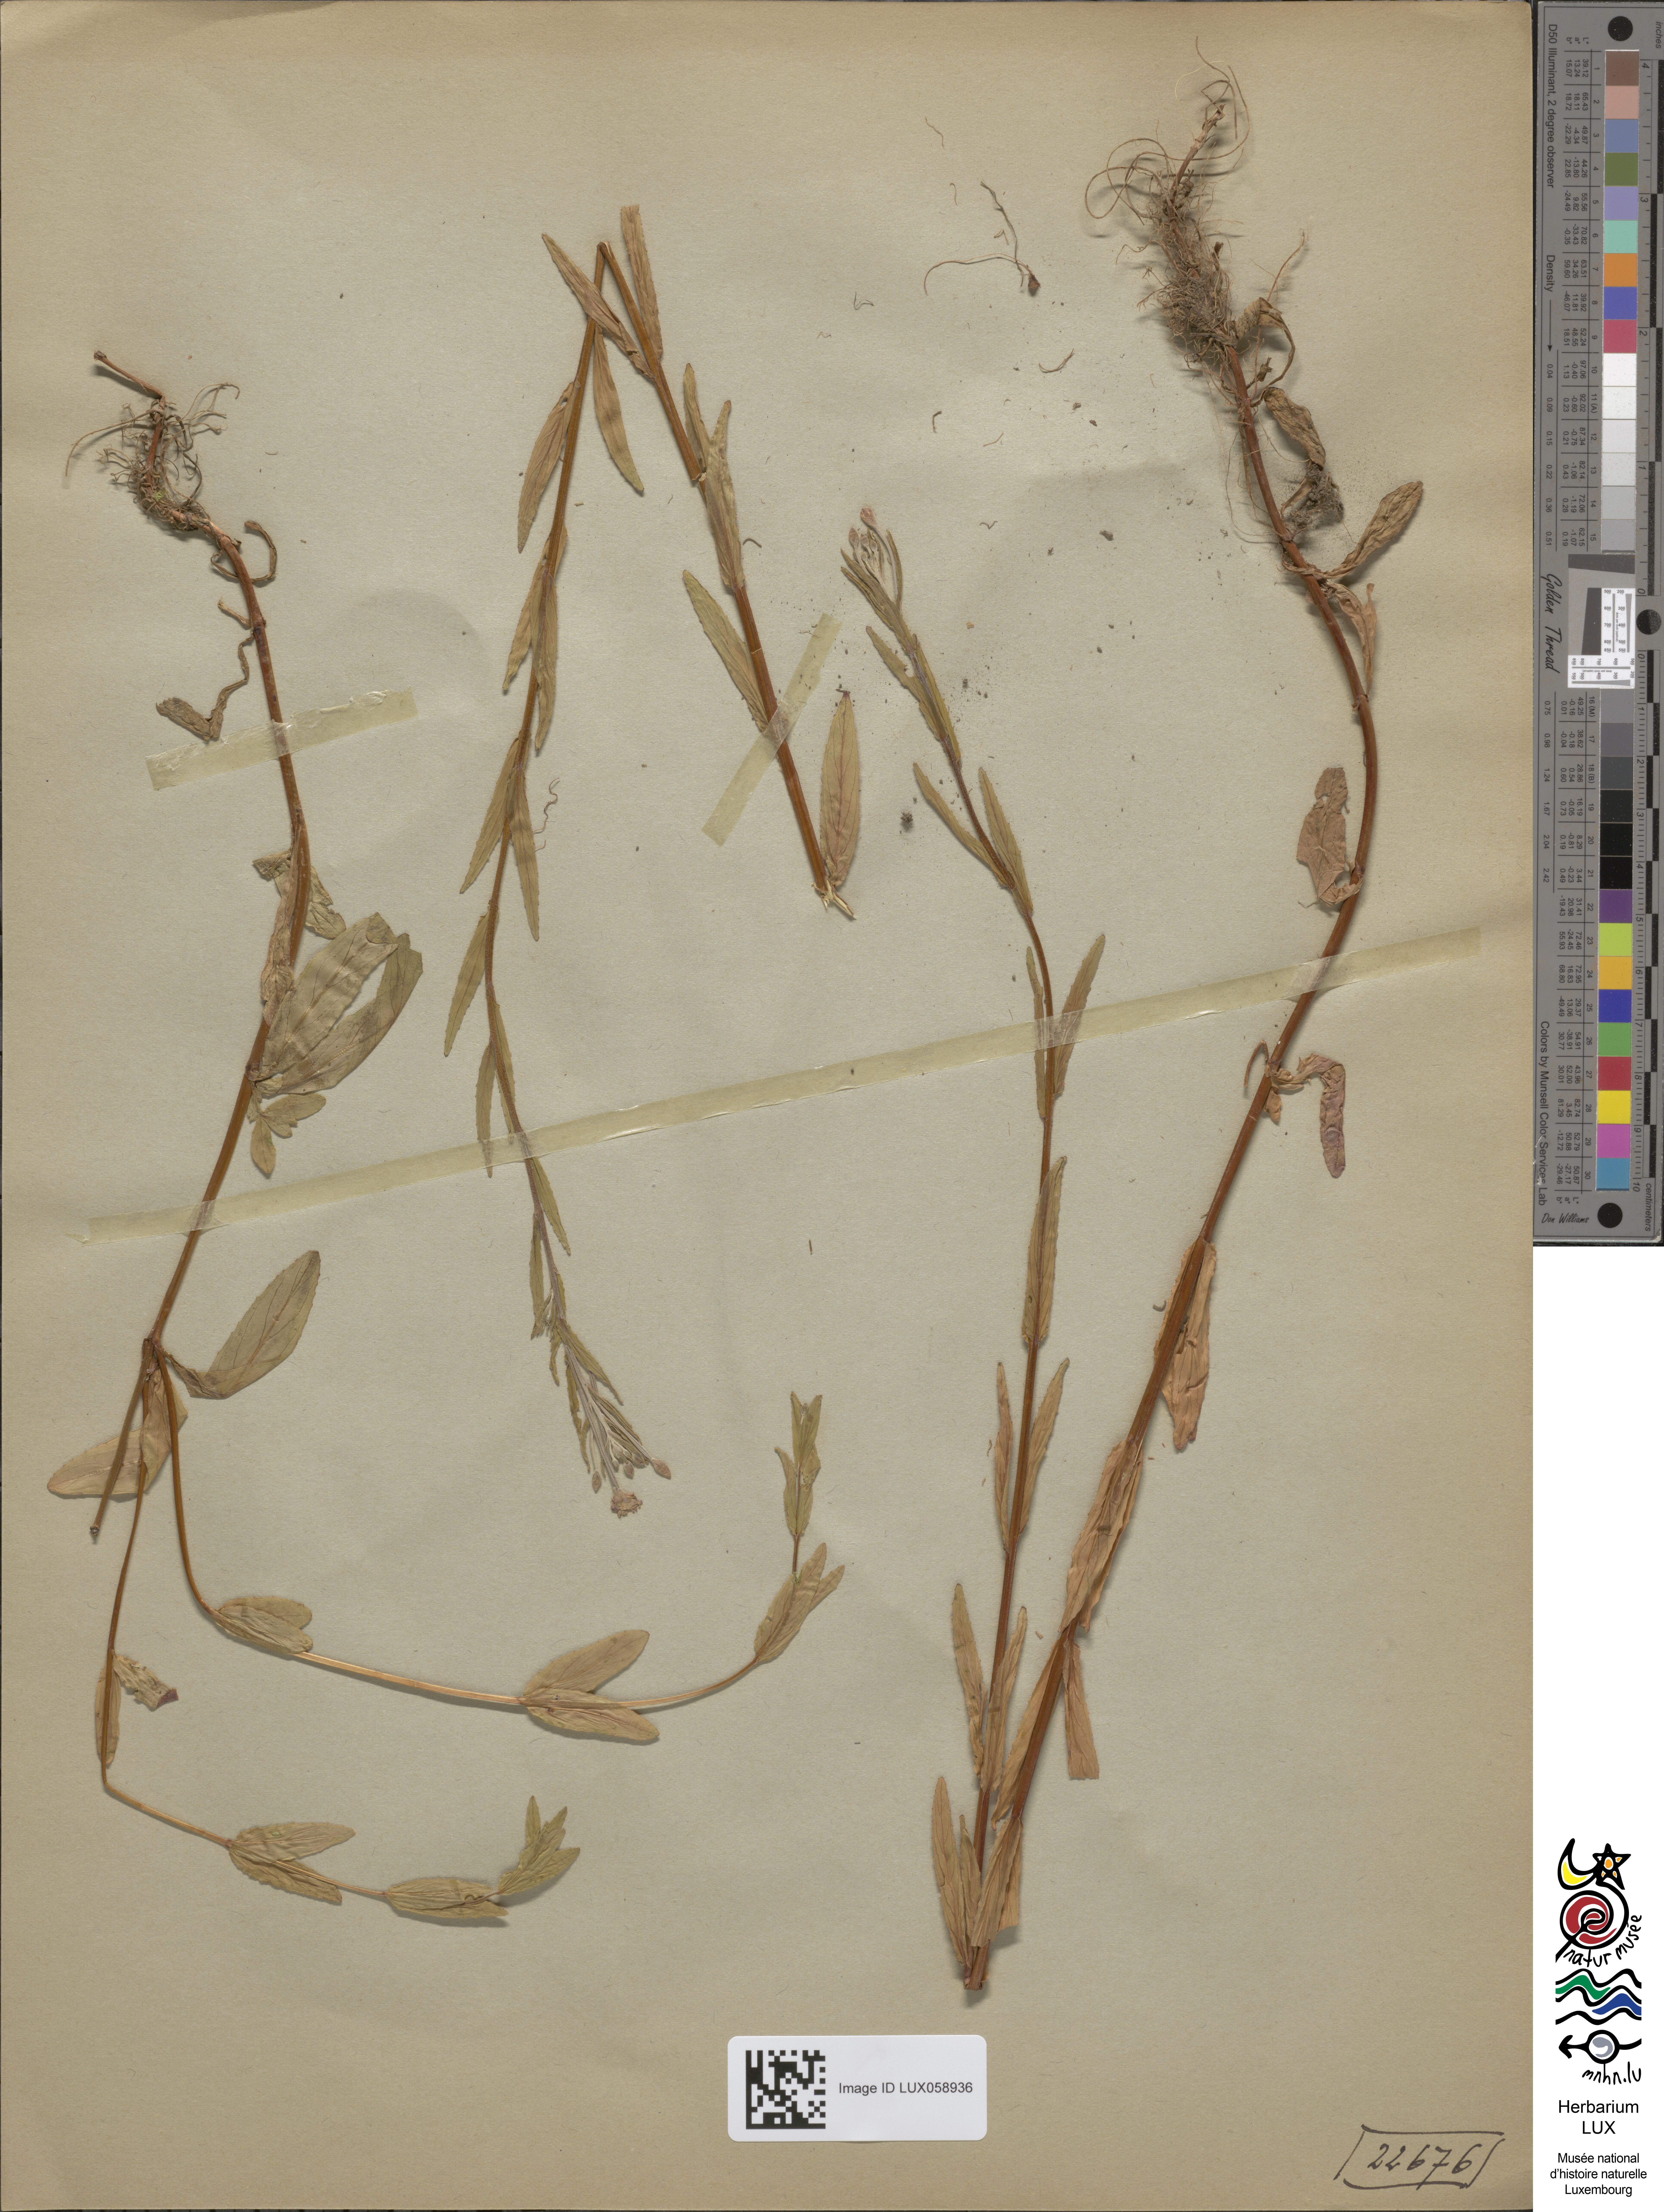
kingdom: Plantae
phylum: Tracheophyta
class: Magnoliopsida
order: Myrtales
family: Onagraceae
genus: Epilobium
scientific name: Epilobium tetragonum
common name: Square-stemmed willowherb
